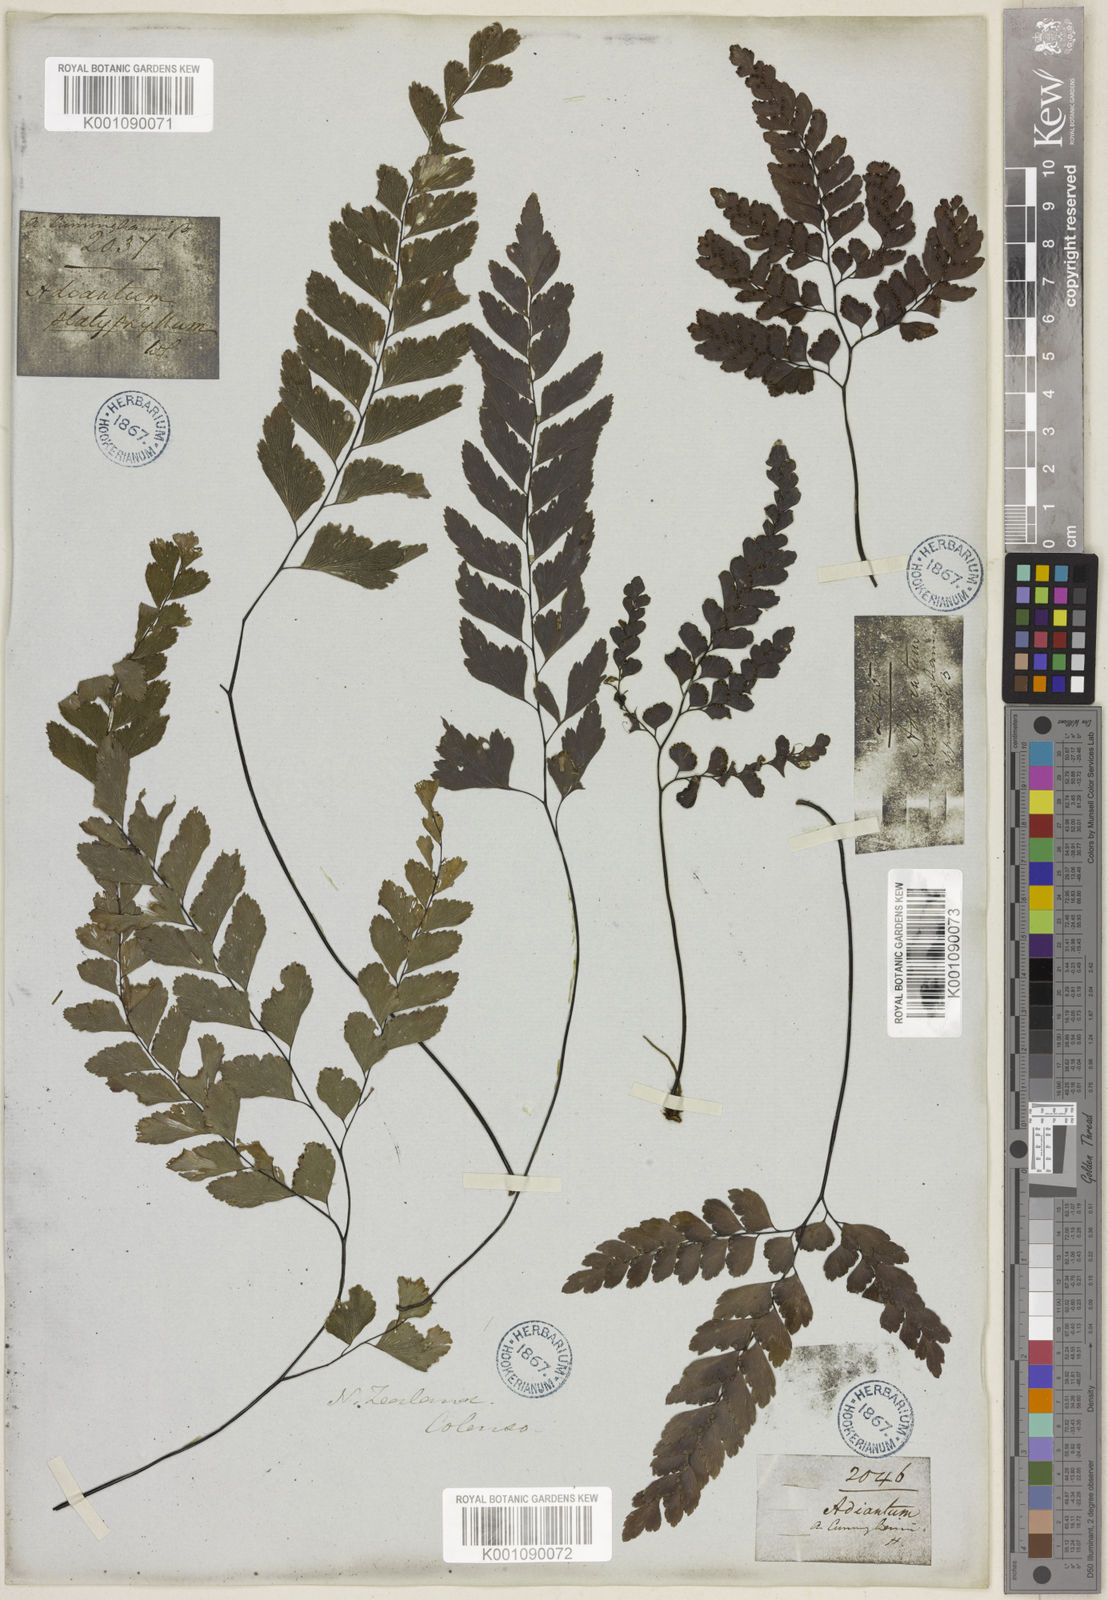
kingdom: Plantae
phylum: Tracheophyta
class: Polypodiopsida
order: Polypodiales
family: Pteridaceae
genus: Adiantum
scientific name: Adiantum cunninghamii
